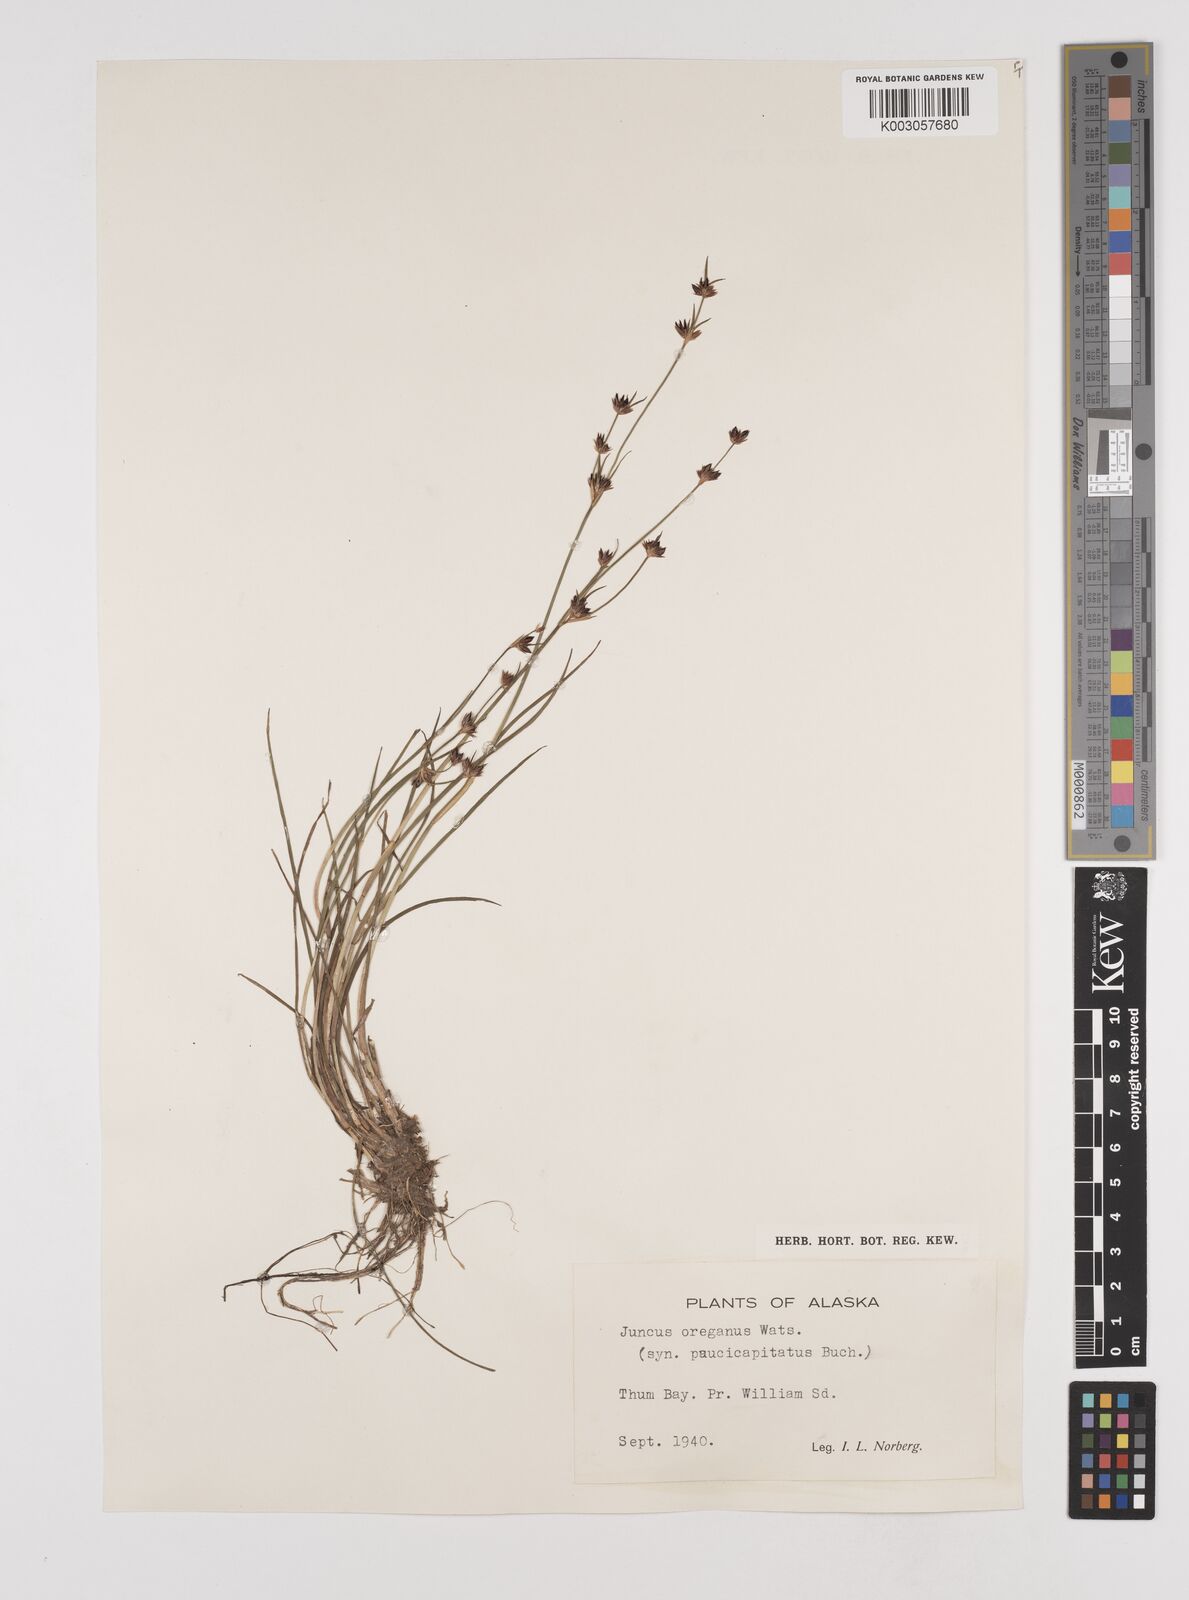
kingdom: Plantae
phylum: Tracheophyta
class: Liliopsida
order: Poales
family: Juncaceae
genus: Juncus
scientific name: Juncus supiniformis
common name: Hairy-leaved rush
